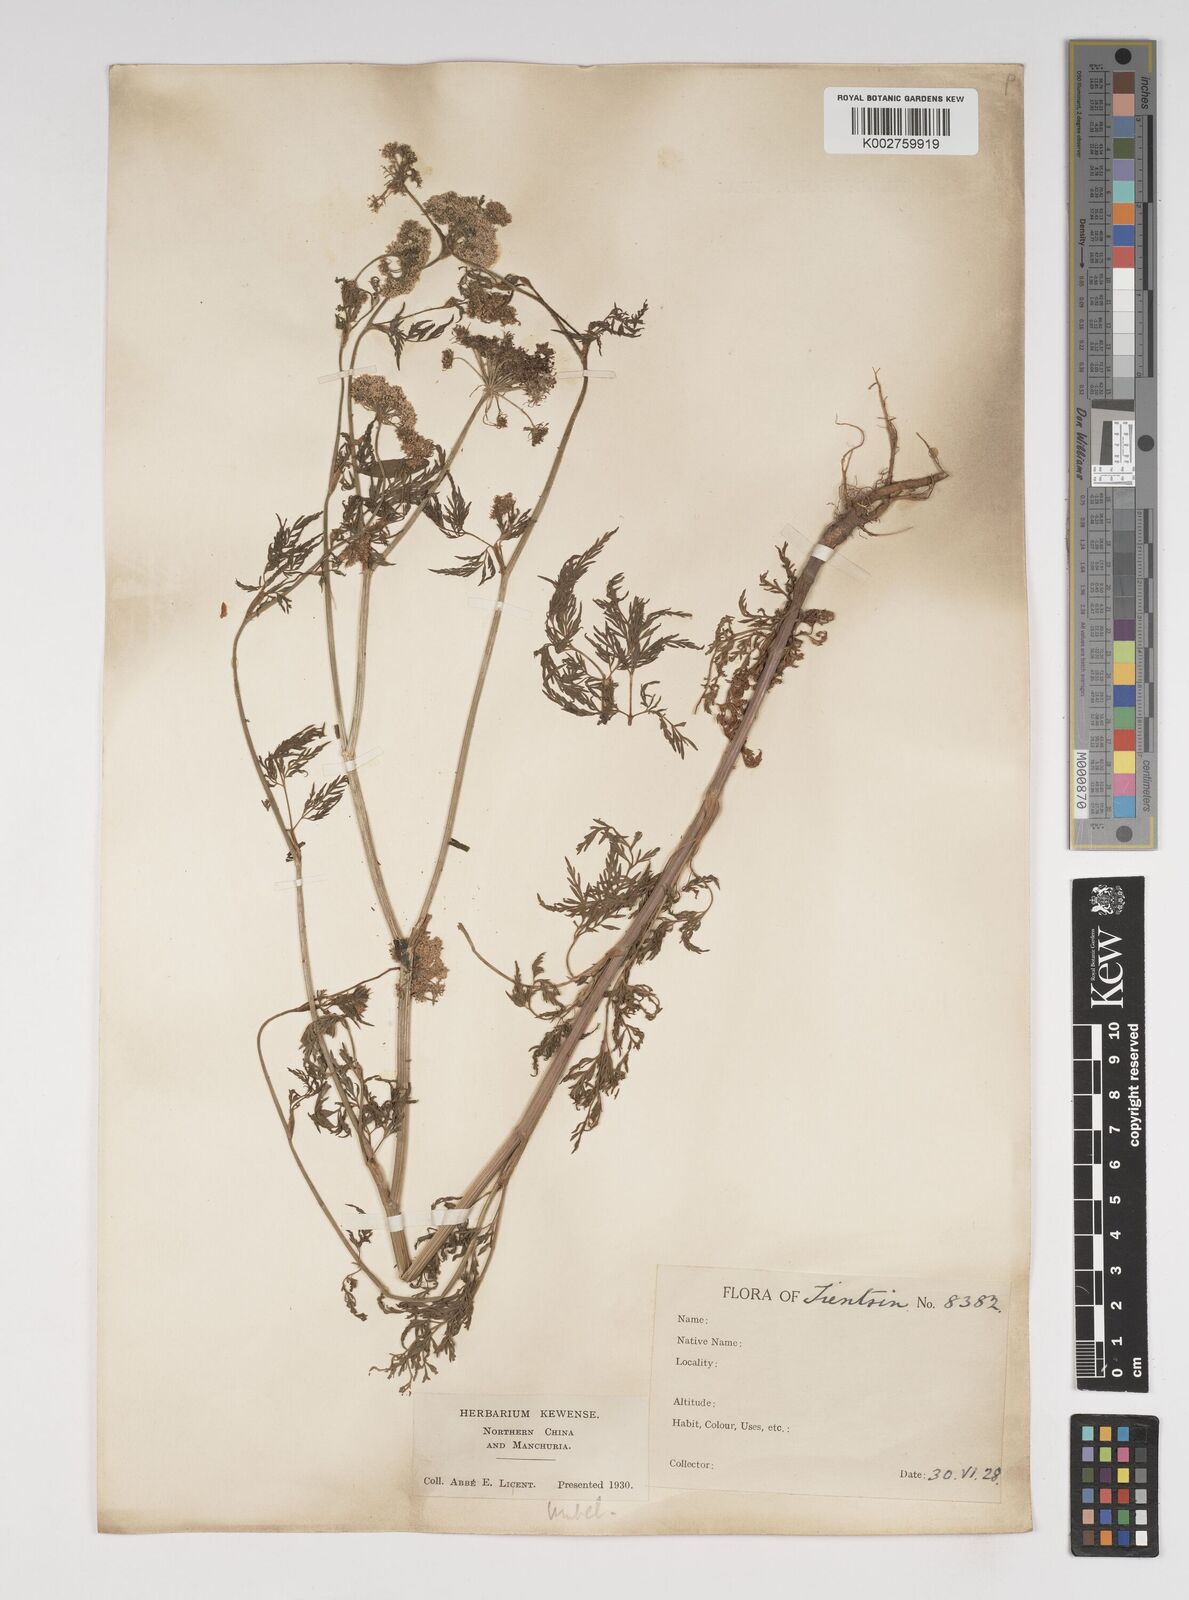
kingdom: Plantae
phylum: Tracheophyta
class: Magnoliopsida
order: Apiales
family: Apiaceae
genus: Cnidium
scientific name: Cnidium monnieri
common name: Monnier's snowparsley
